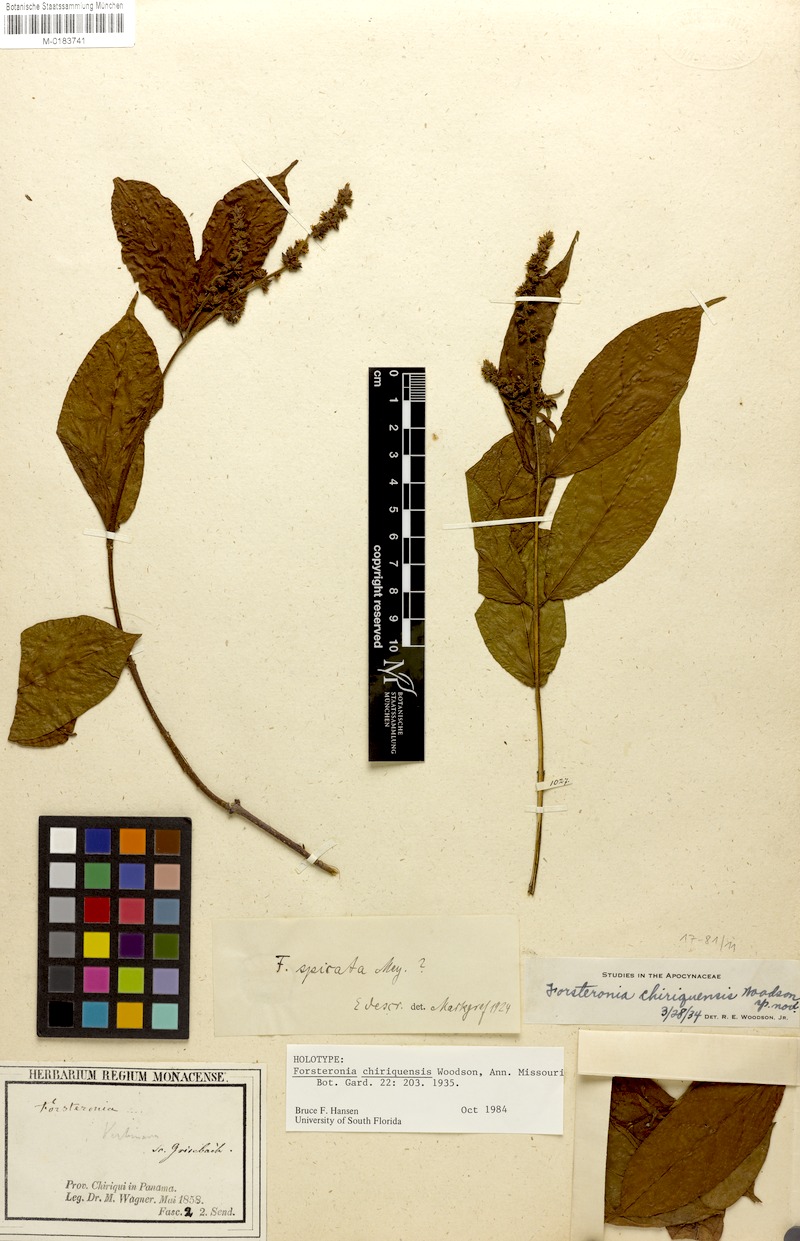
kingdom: Plantae
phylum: Tracheophyta
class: Magnoliopsida
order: Gentianales
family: Apocynaceae
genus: Forsteronia
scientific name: Forsteronia chiriquensis
